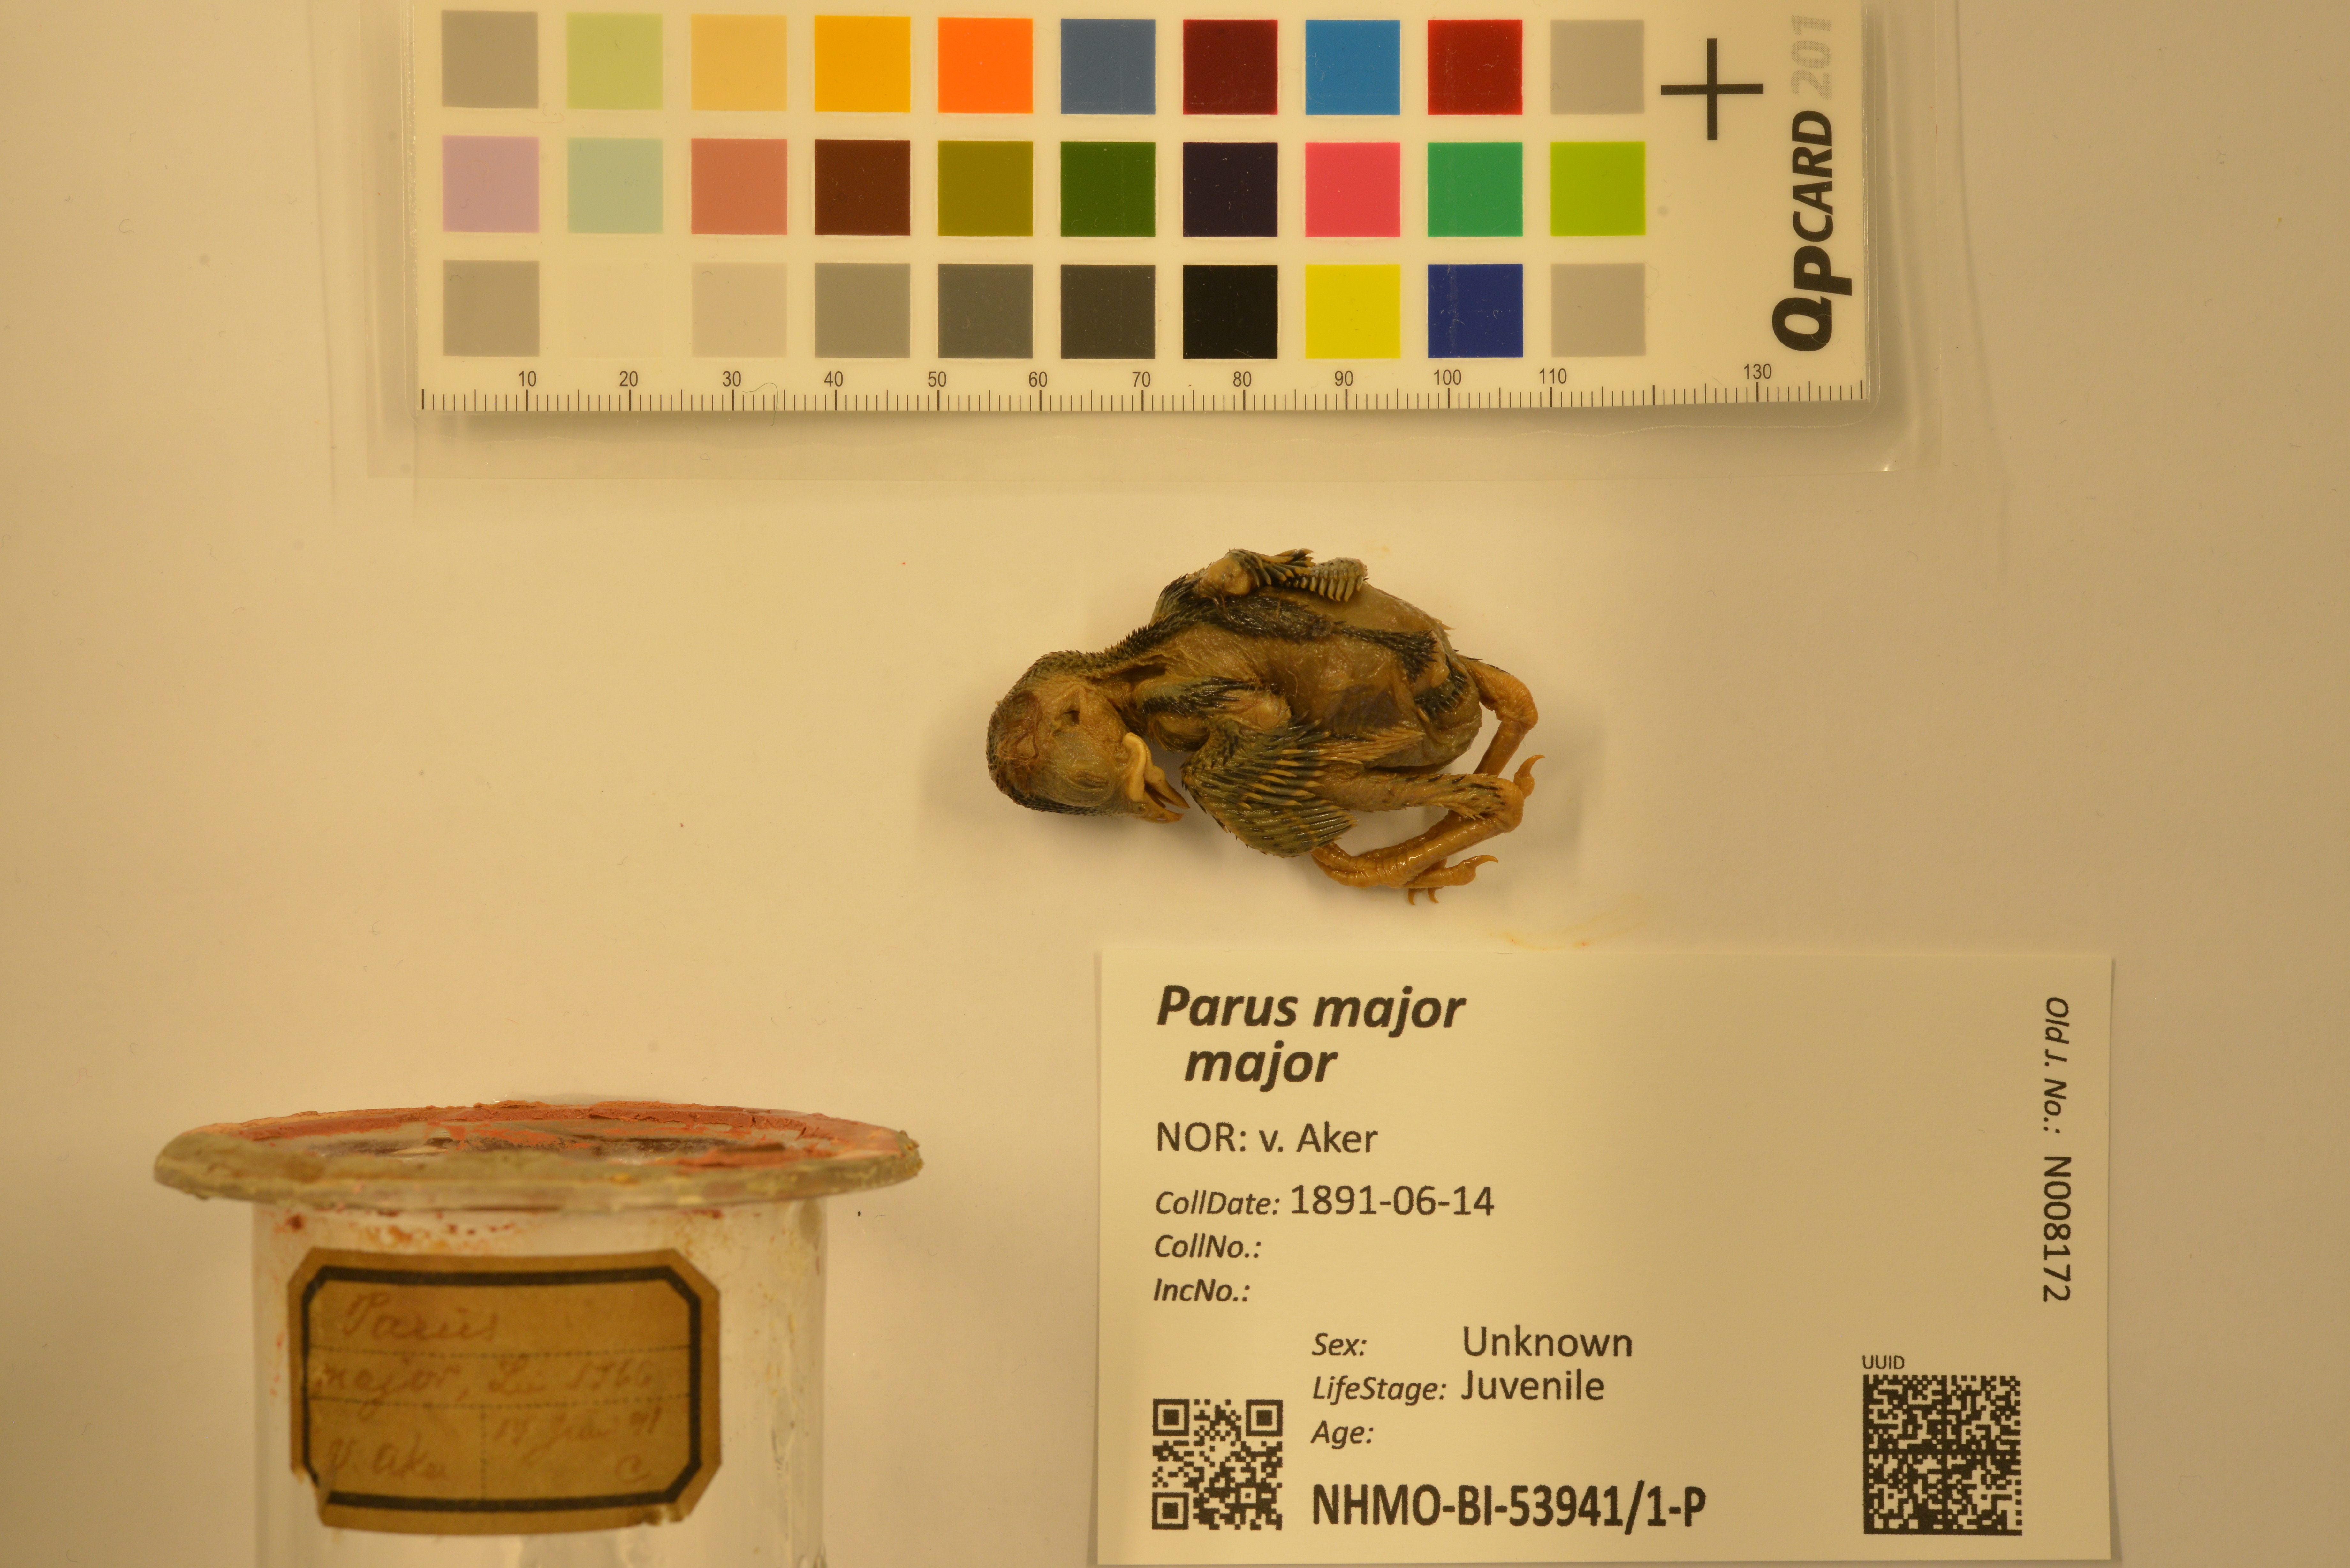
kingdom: Animalia
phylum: Chordata
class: Aves
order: Passeriformes
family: Paridae
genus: Parus
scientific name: Parus major
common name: Great tit
